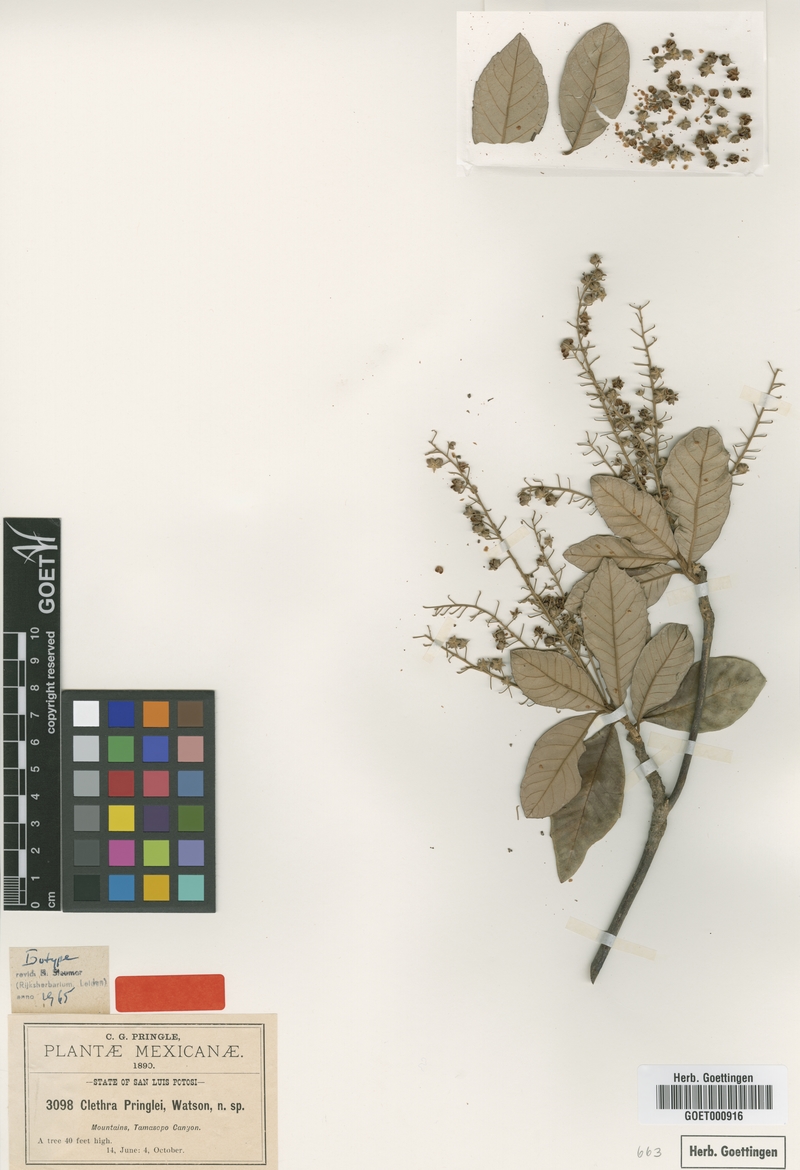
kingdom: Plantae
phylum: Tracheophyta
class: Magnoliopsida
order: Ericales
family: Clethraceae
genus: Clethra
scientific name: Clethra pringlei
